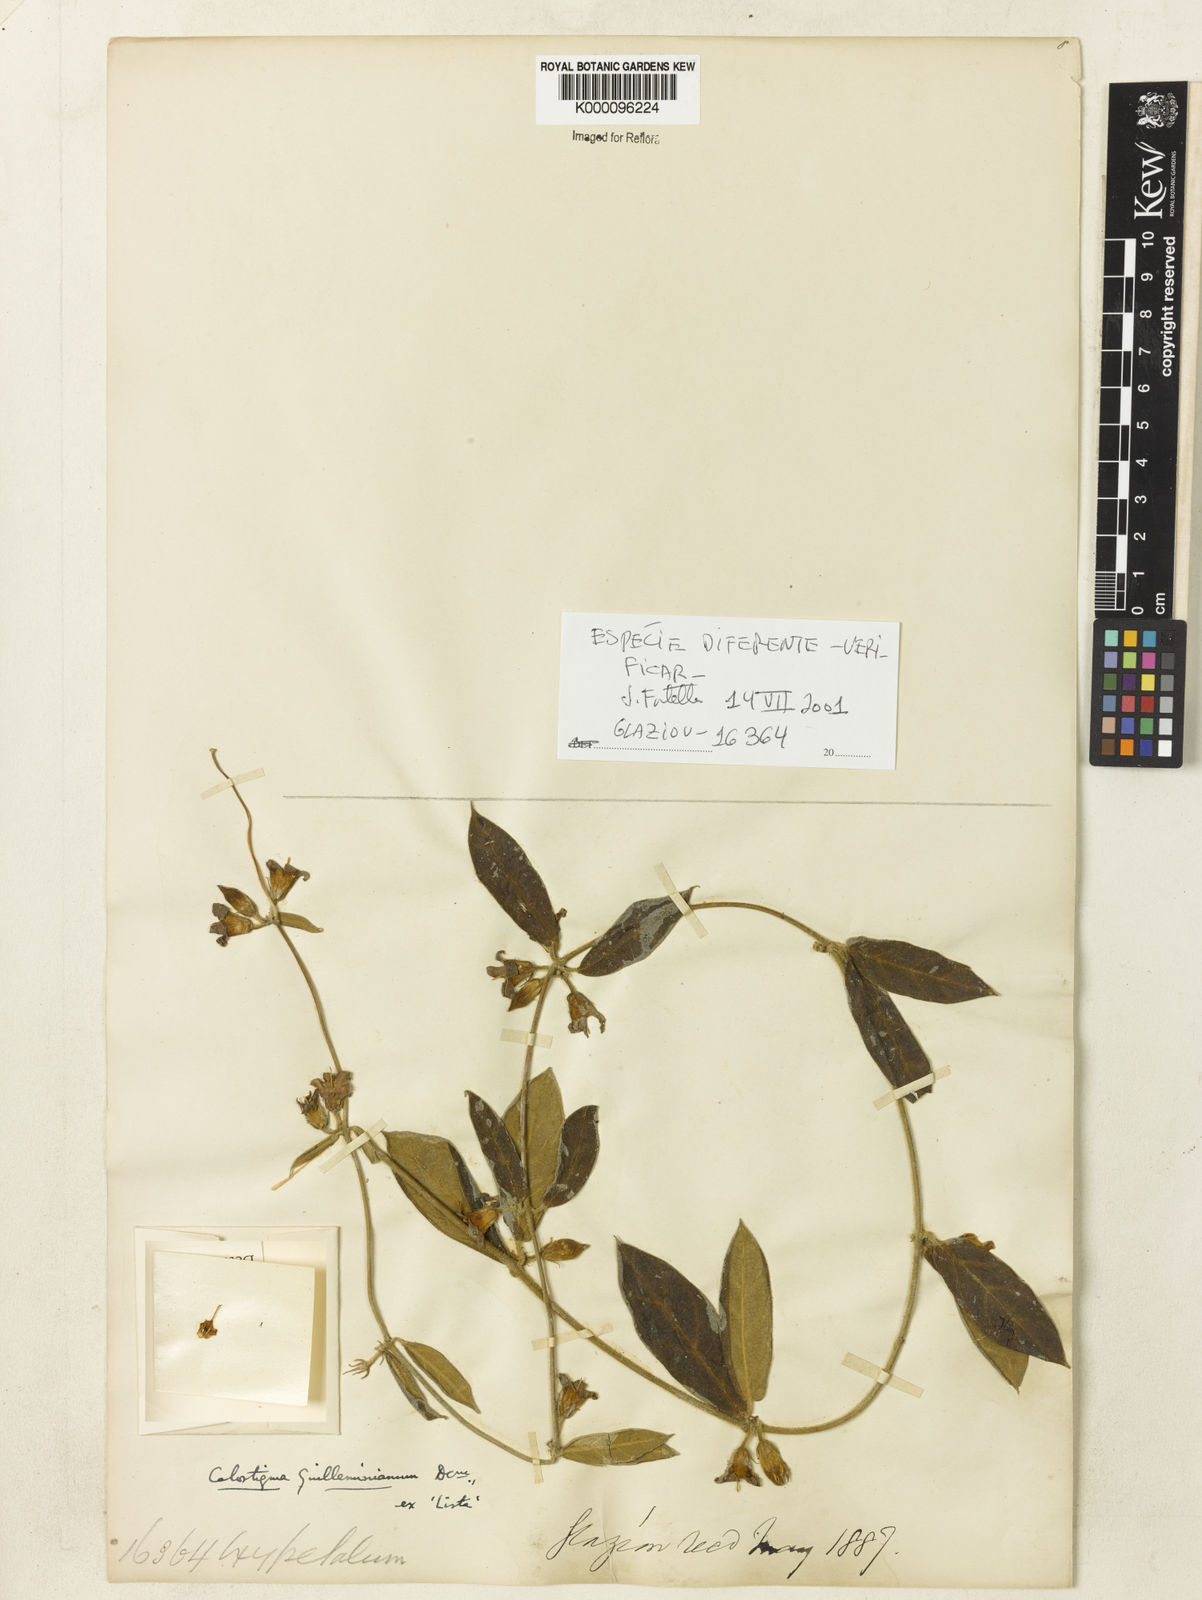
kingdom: Plantae
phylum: Tracheophyta
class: Magnoliopsida
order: Gentianales
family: Apocynaceae
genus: Oxypetalum
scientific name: Oxypetalum
